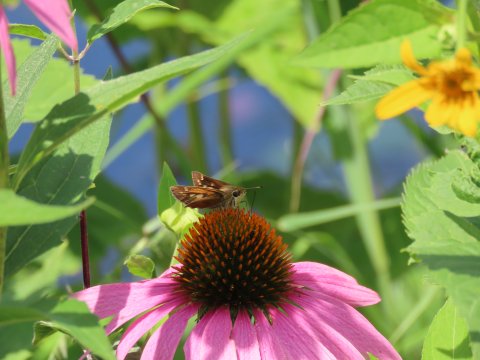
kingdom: Animalia
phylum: Arthropoda
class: Insecta
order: Lepidoptera
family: Hesperiidae
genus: Atalopedes
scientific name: Atalopedes campestris
